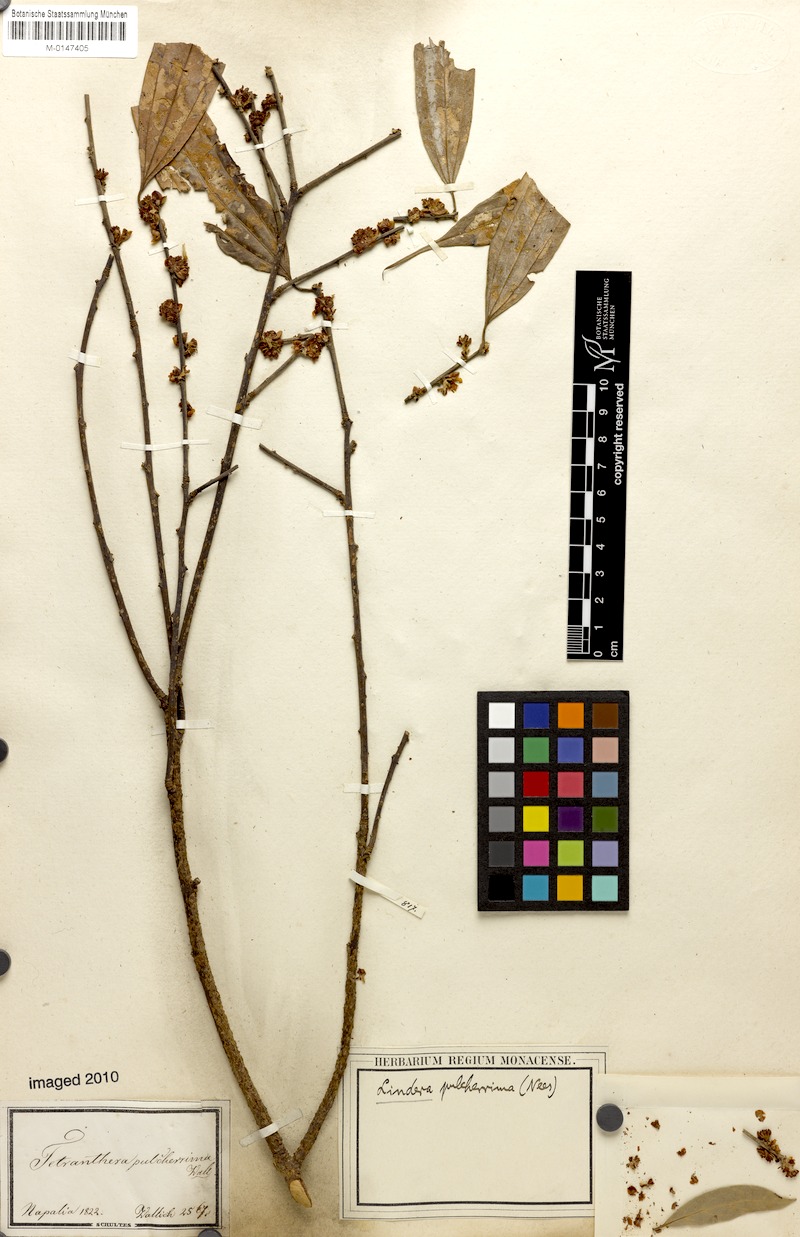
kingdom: Plantae
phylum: Tracheophyta
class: Magnoliopsida
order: Laurales
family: Lauraceae
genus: Lindera
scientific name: Lindera pulcherrima
